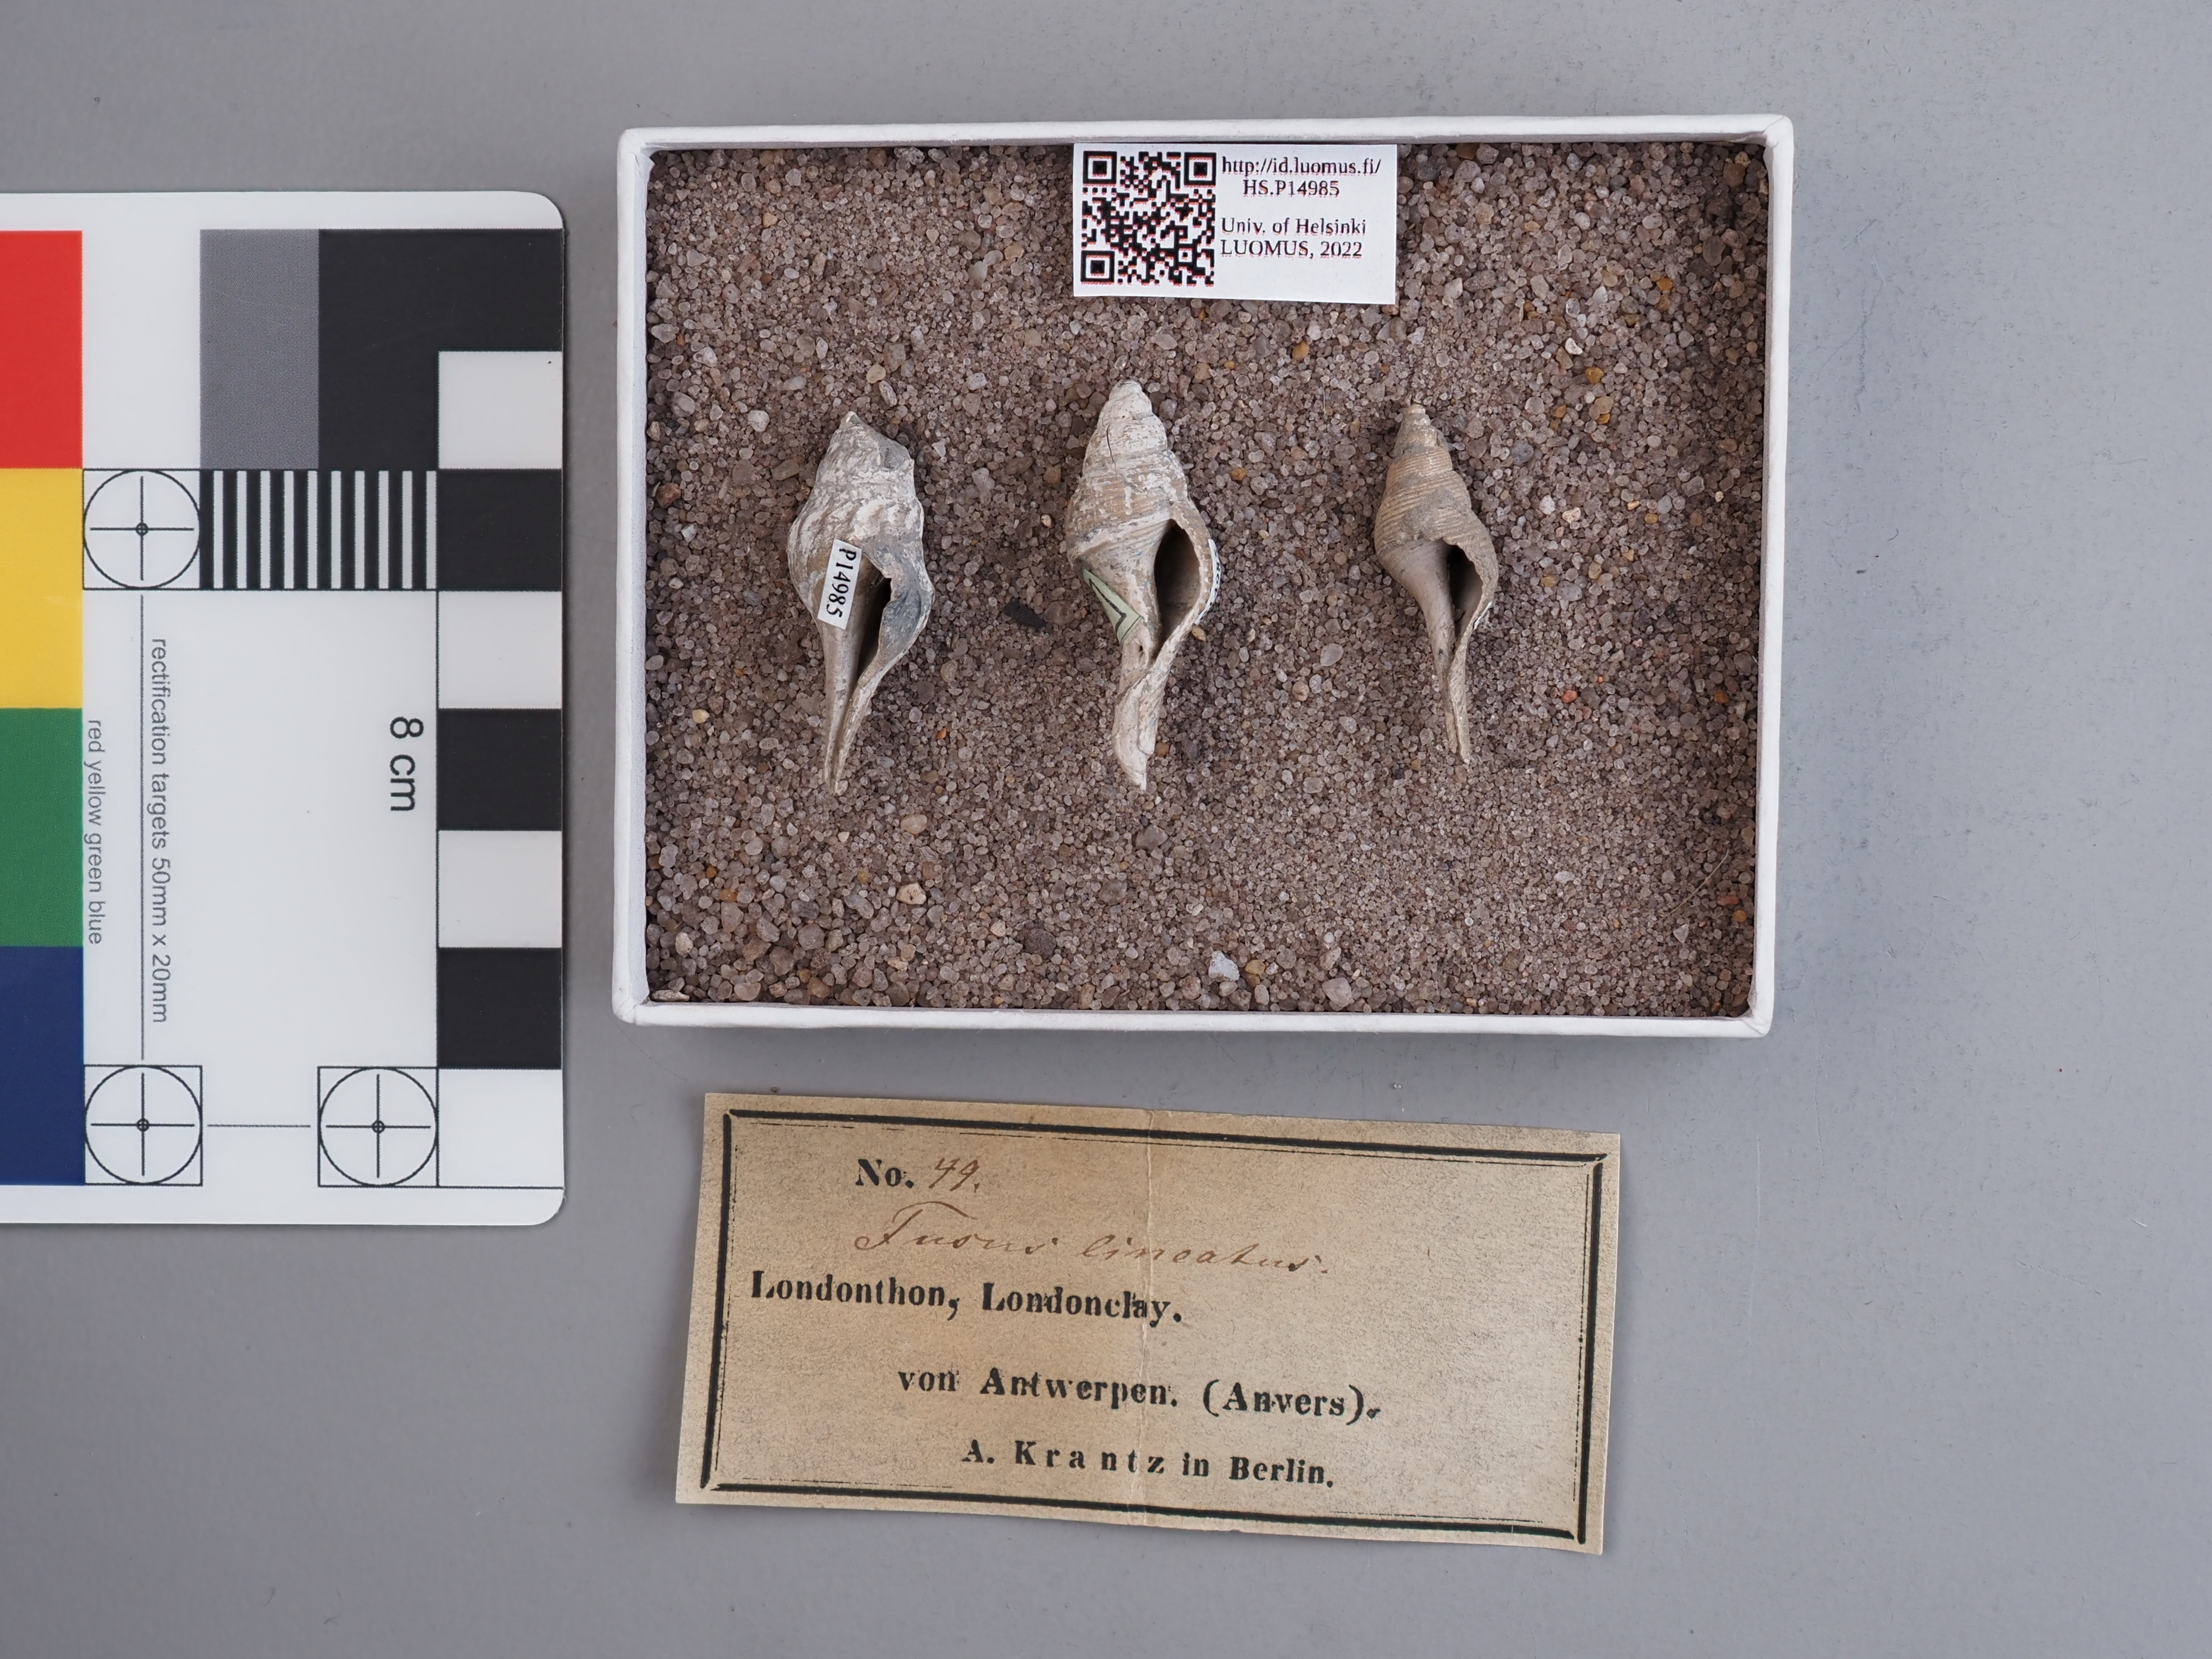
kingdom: Animalia
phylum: Mollusca
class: Gastropoda
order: Neogastropoda
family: Tudiclidae
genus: Buccinulum
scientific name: Buccinulum linea
